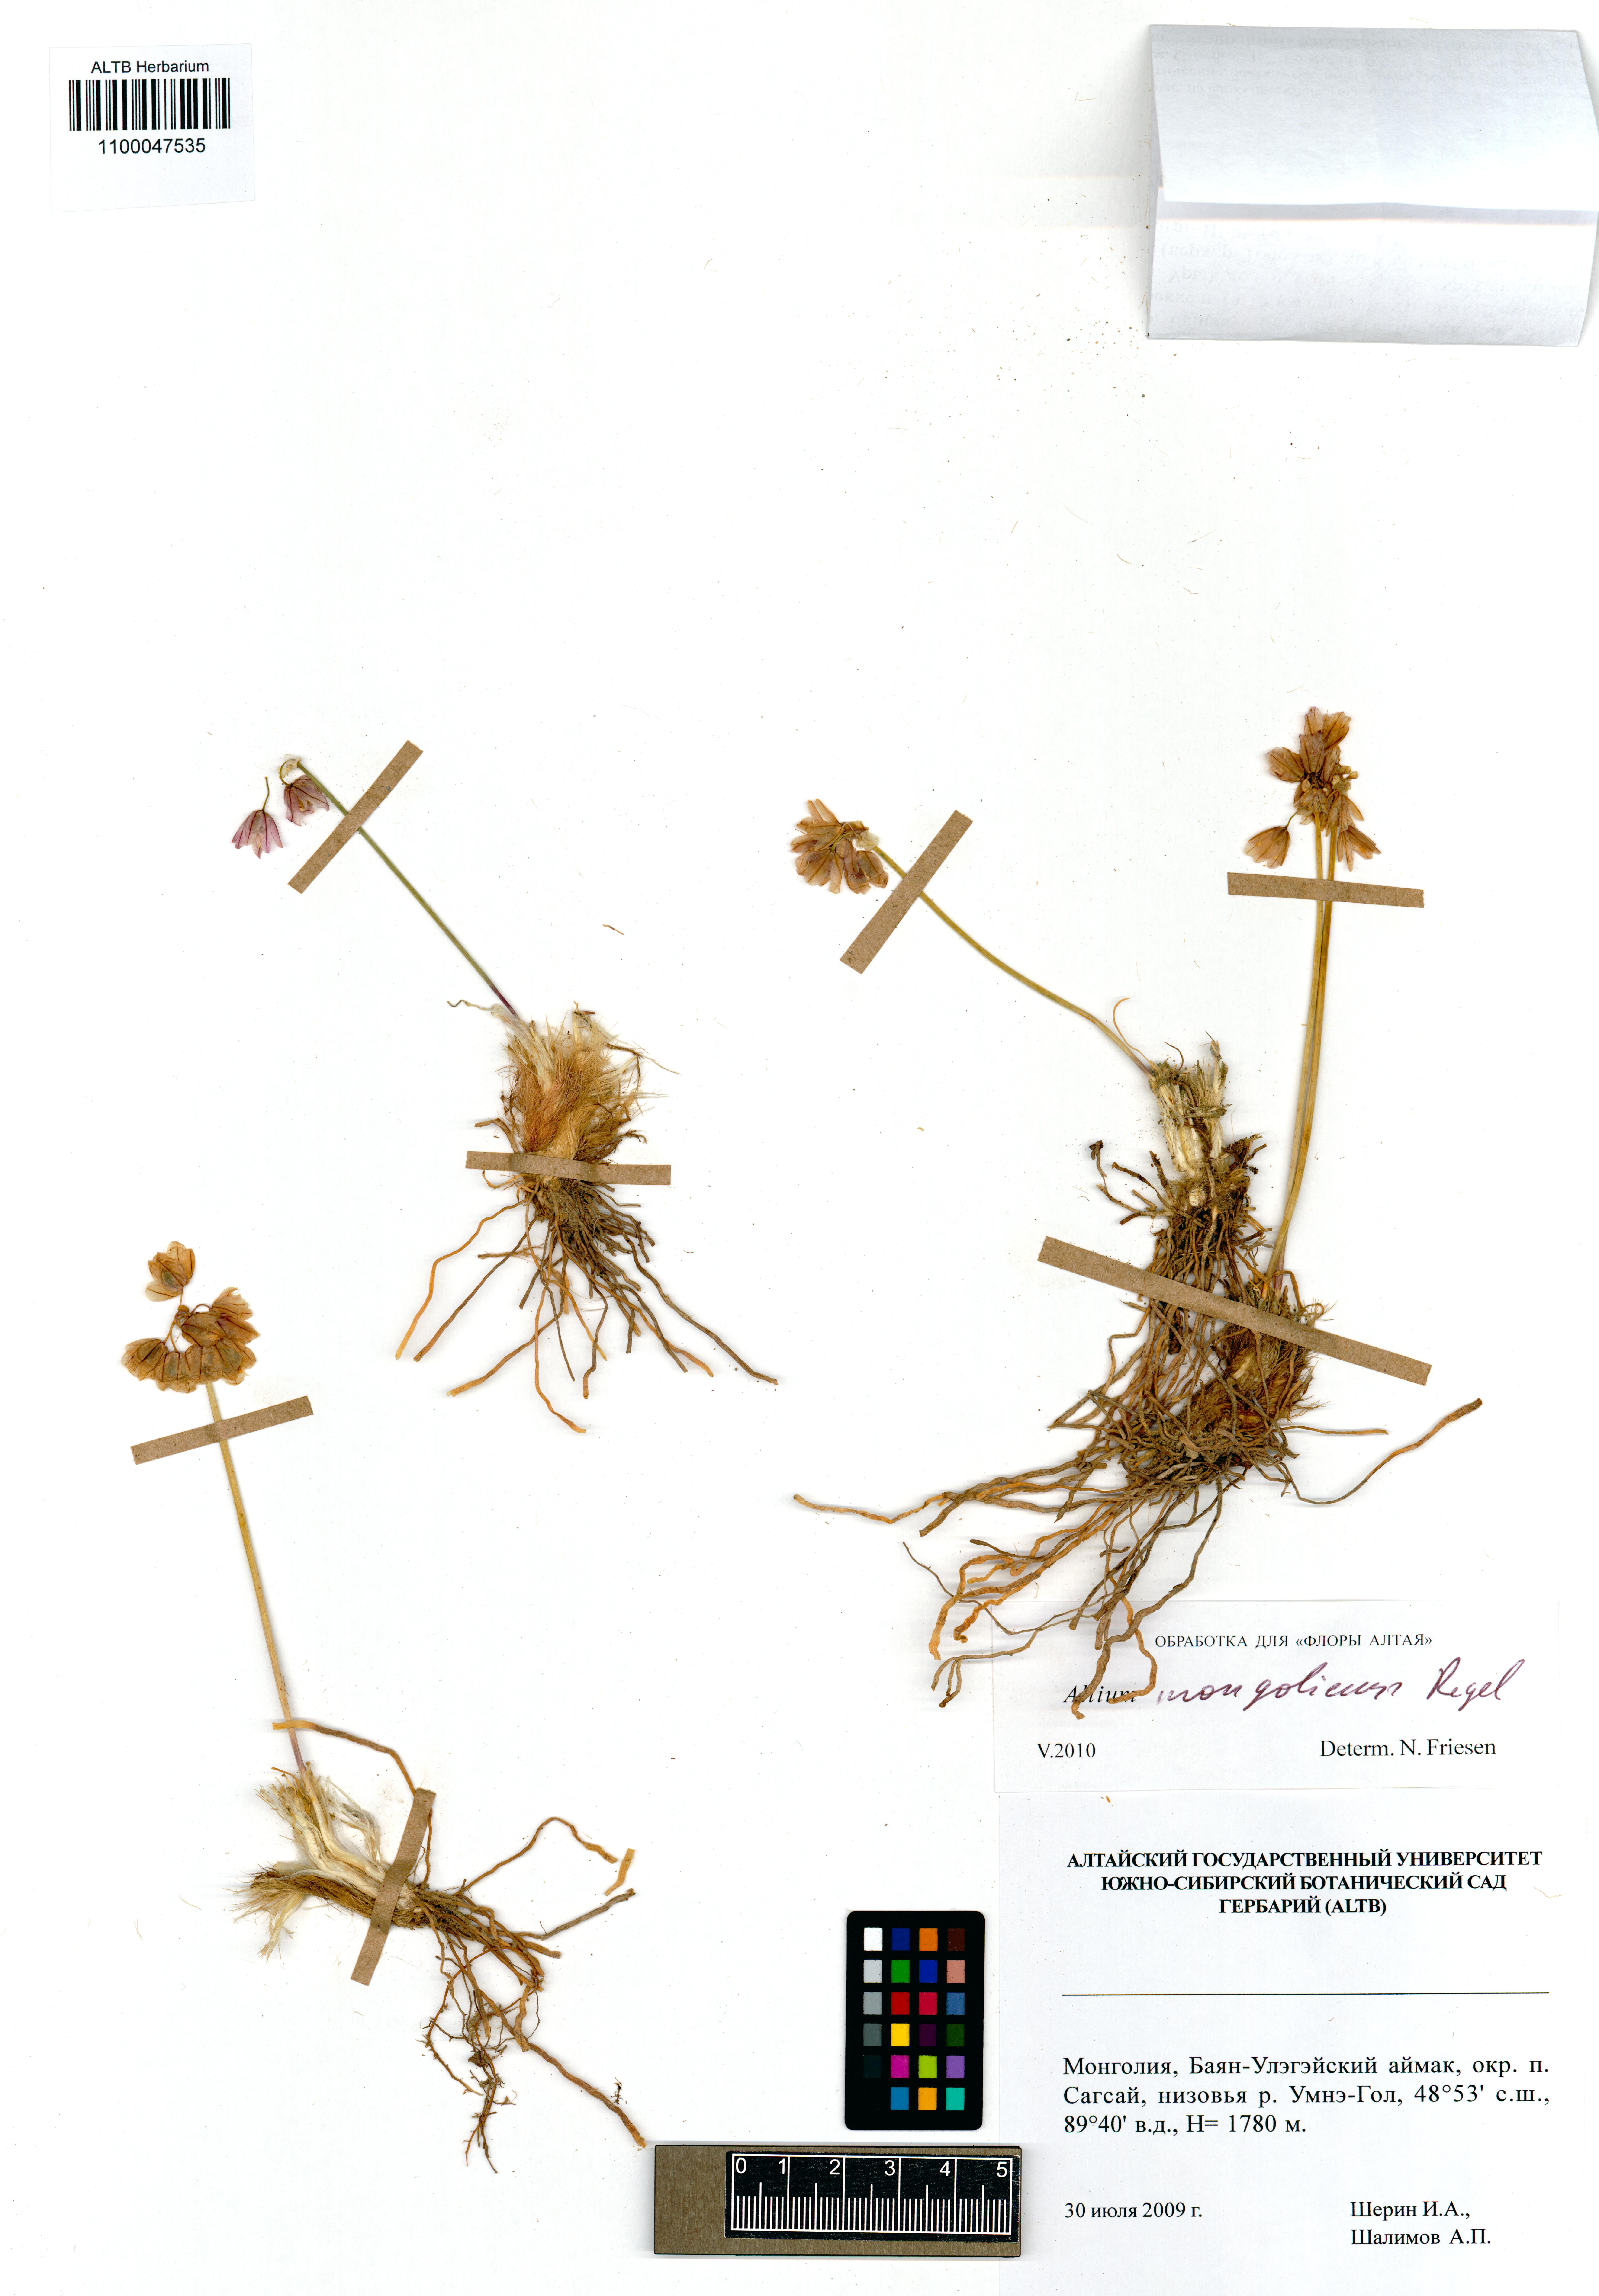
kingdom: Plantae
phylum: Tracheophyta
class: Liliopsida
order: Asparagales
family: Amaryllidaceae
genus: Allium
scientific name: Allium mongolicum
